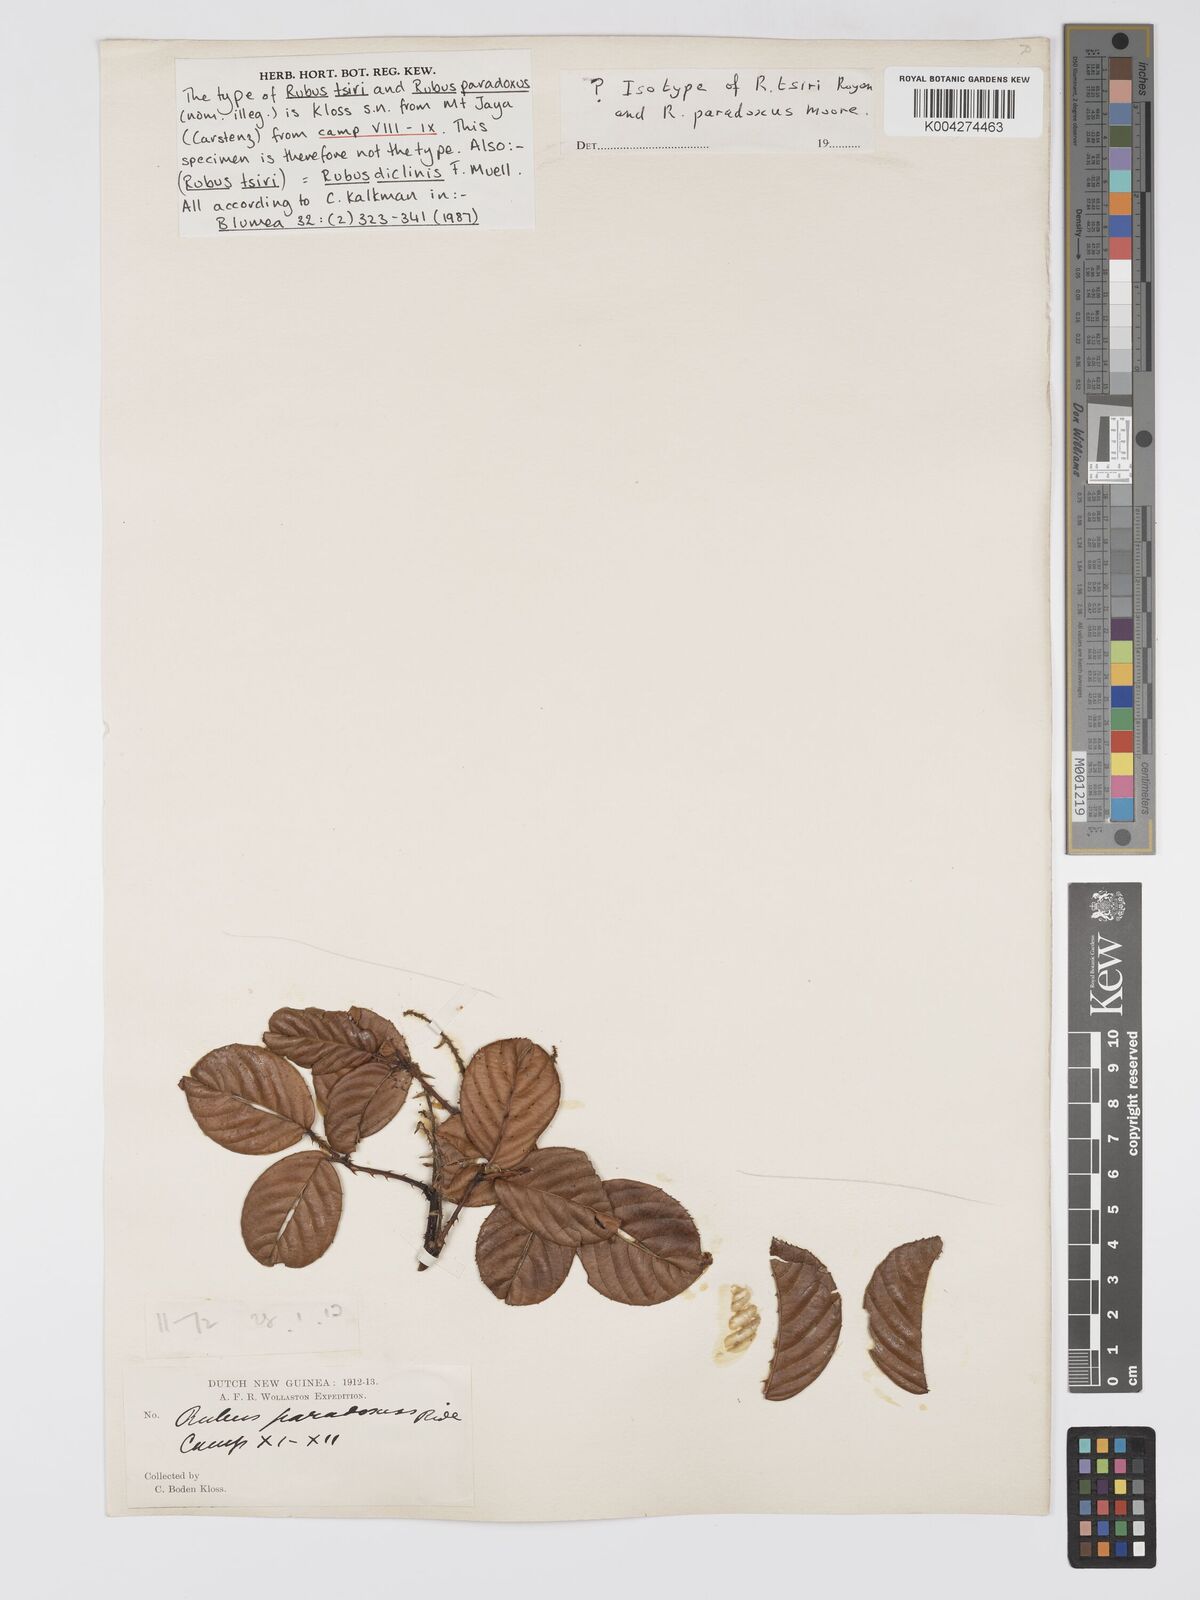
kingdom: Plantae
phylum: Tracheophyta
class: Magnoliopsida
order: Rosales
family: Rosaceae
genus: Rubus
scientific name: Rubus diclinis
